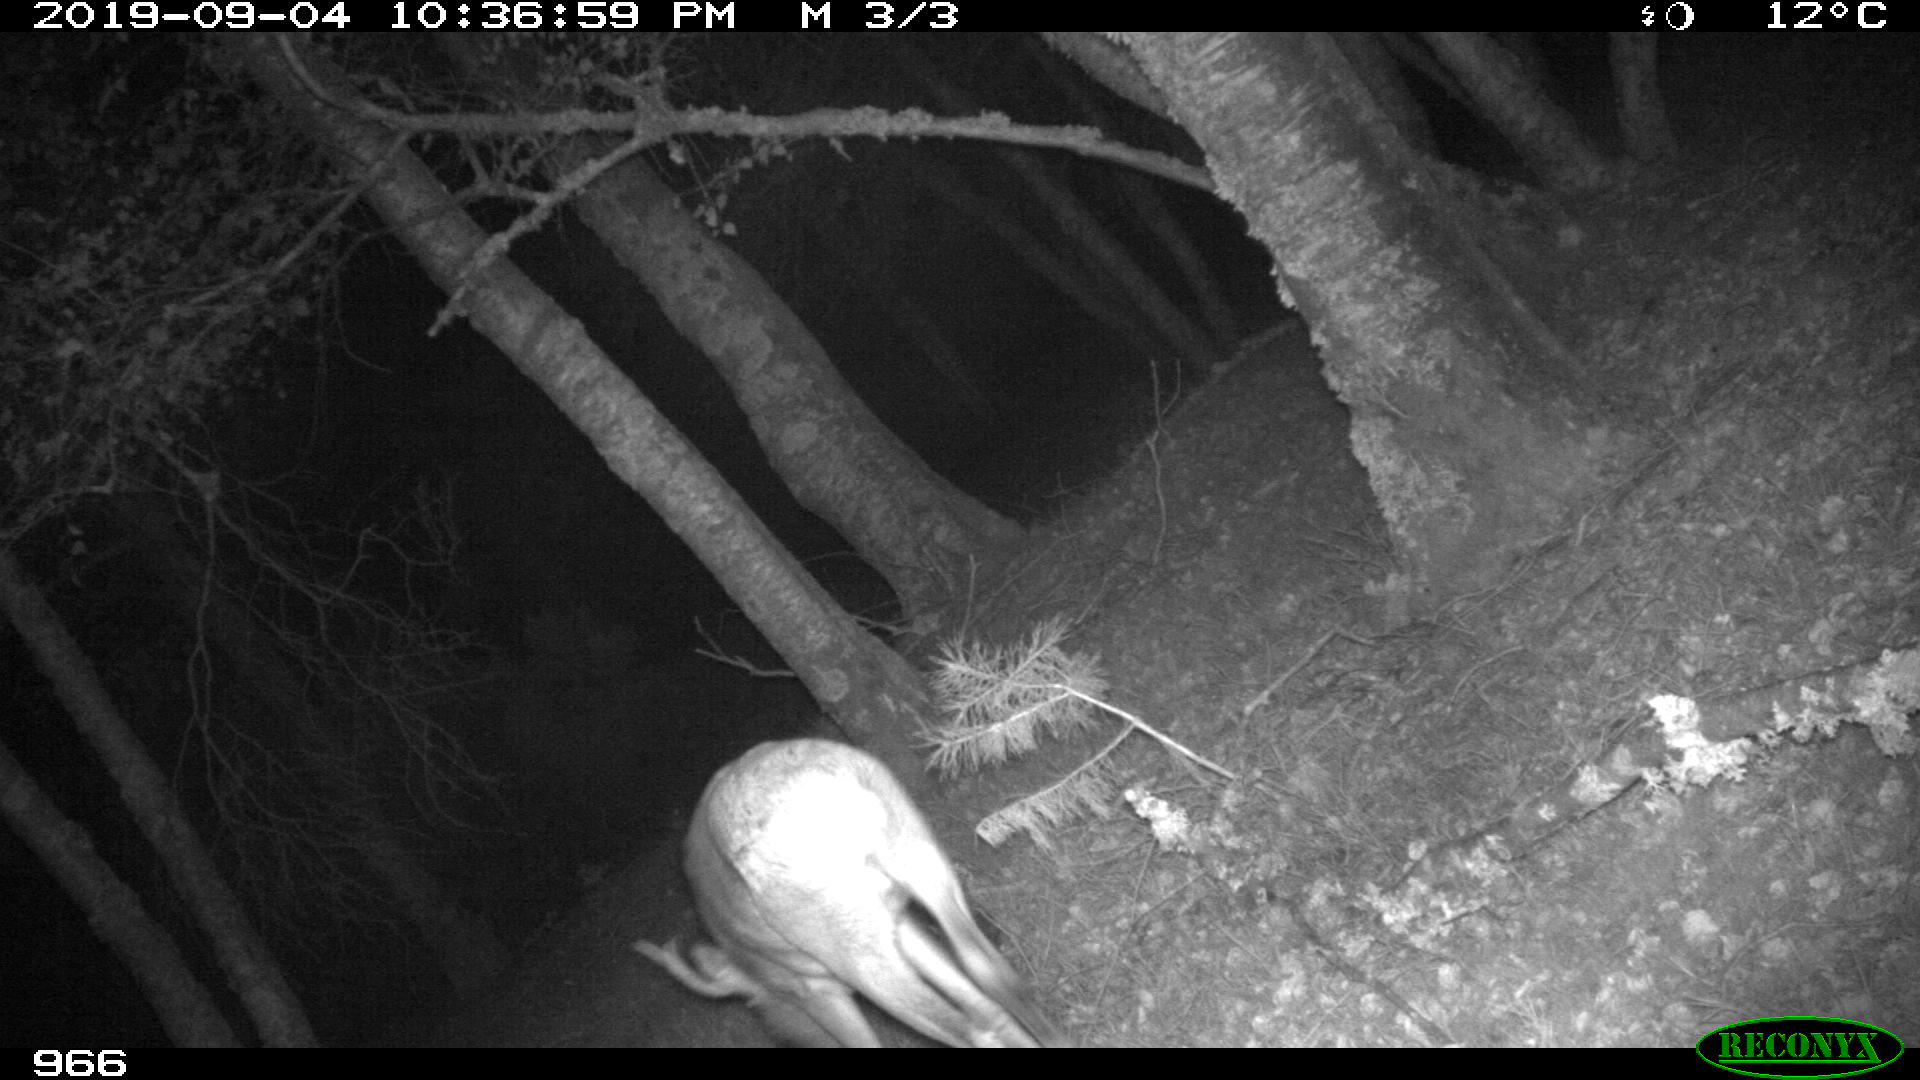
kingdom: Animalia
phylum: Chordata
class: Mammalia
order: Artiodactyla
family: Cervidae
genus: Capreolus
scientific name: Capreolus capreolus
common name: Western roe deer
